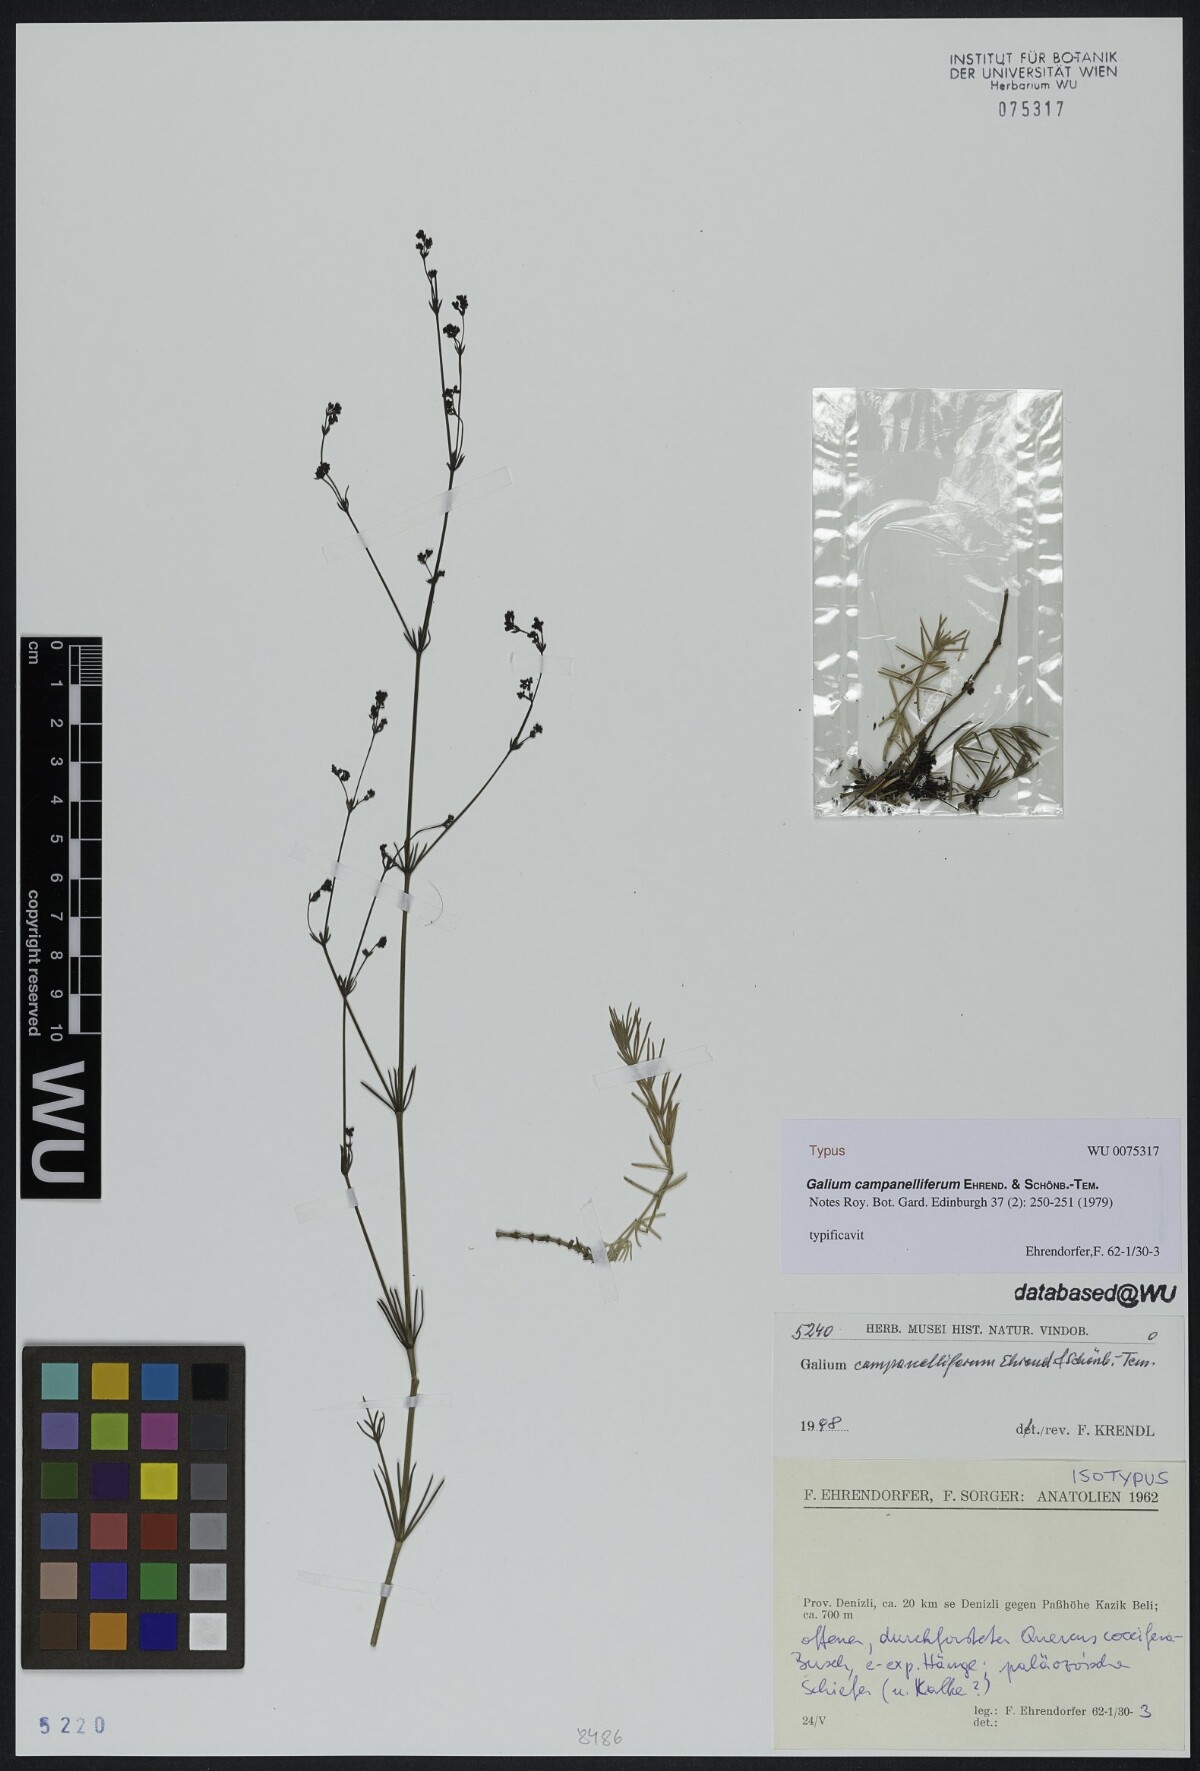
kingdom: Plantae
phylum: Tracheophyta
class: Magnoliopsida
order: Gentianales
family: Rubiaceae
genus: Galium
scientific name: Galium campanelliferum
